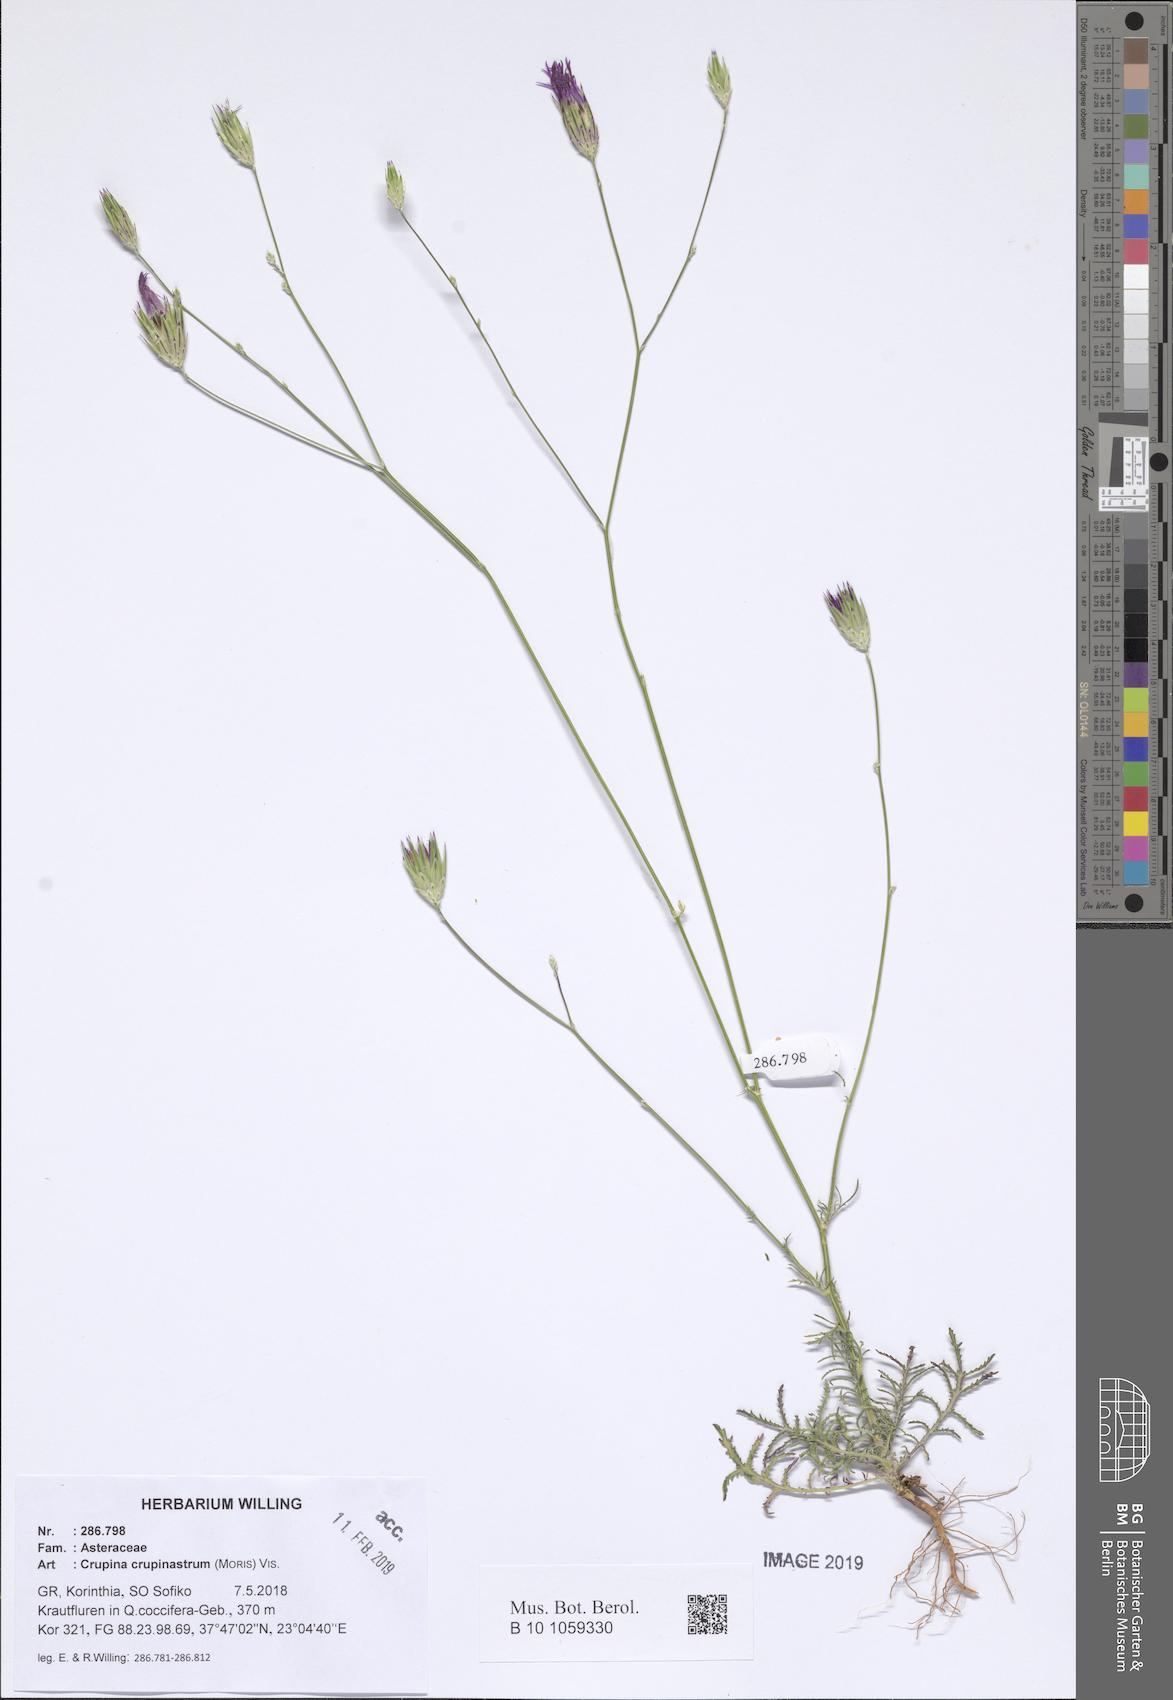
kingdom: Plantae
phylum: Tracheophyta
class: Magnoliopsida
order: Asterales
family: Asteraceae
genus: Crupina
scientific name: Crupina crupinastrum
